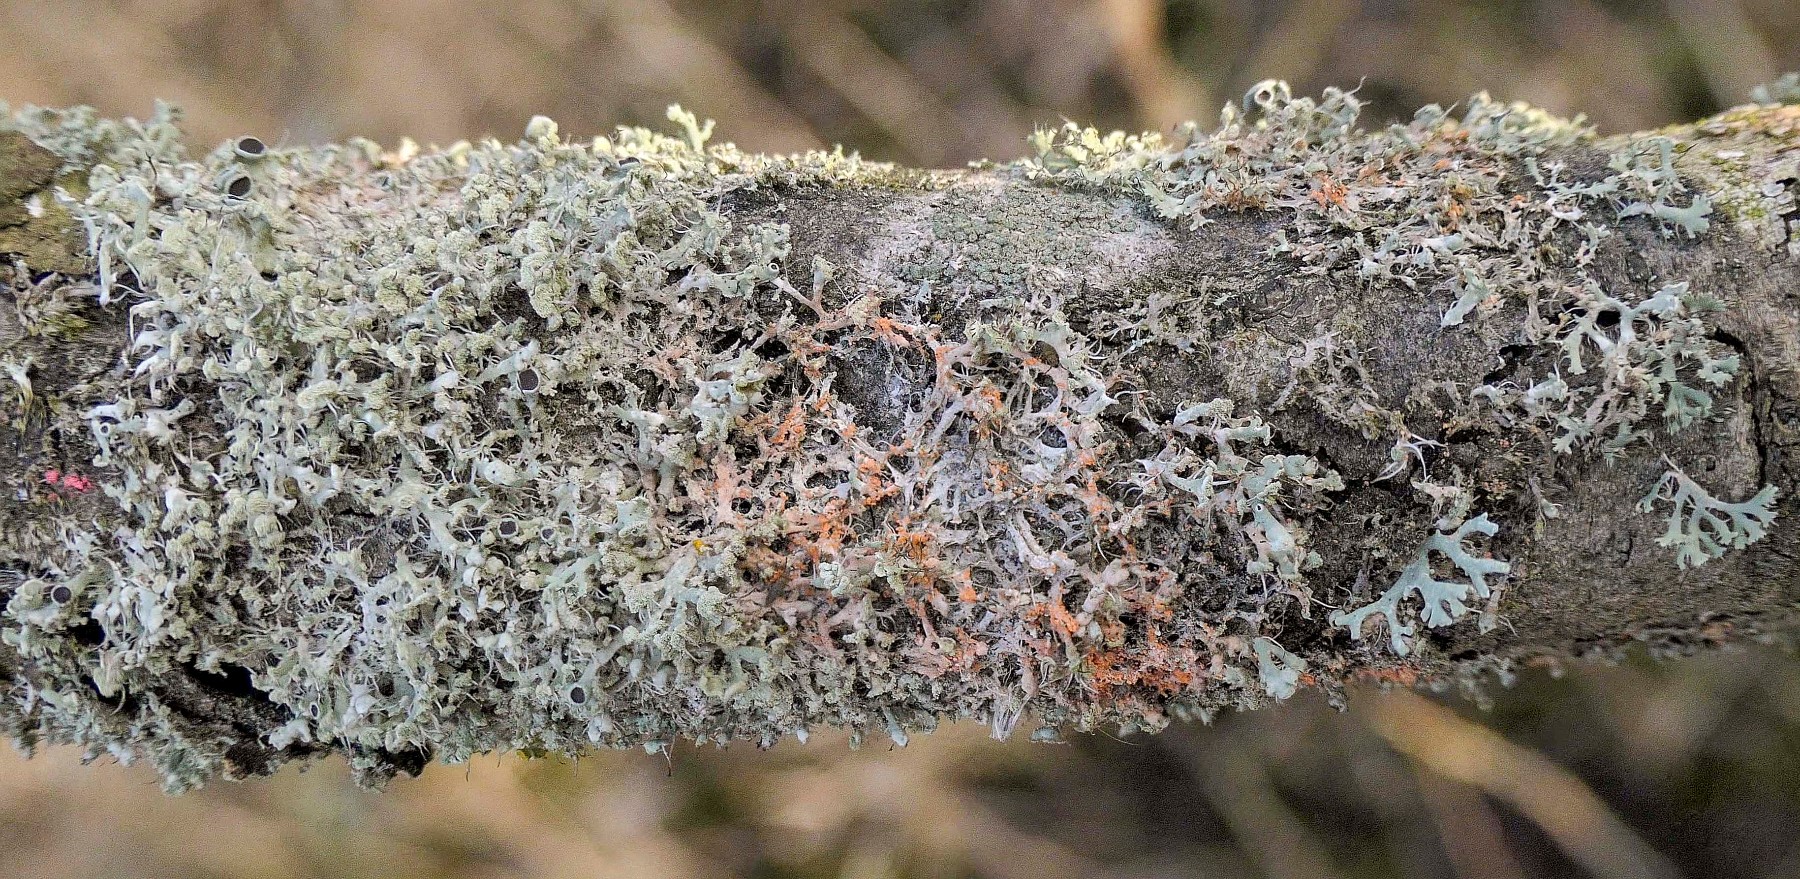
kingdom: Fungi
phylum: Basidiomycota
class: Agaricomycetes
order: Corticiales
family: Corticiaceae
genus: Erythricium
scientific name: Erythricium aurantiacum
